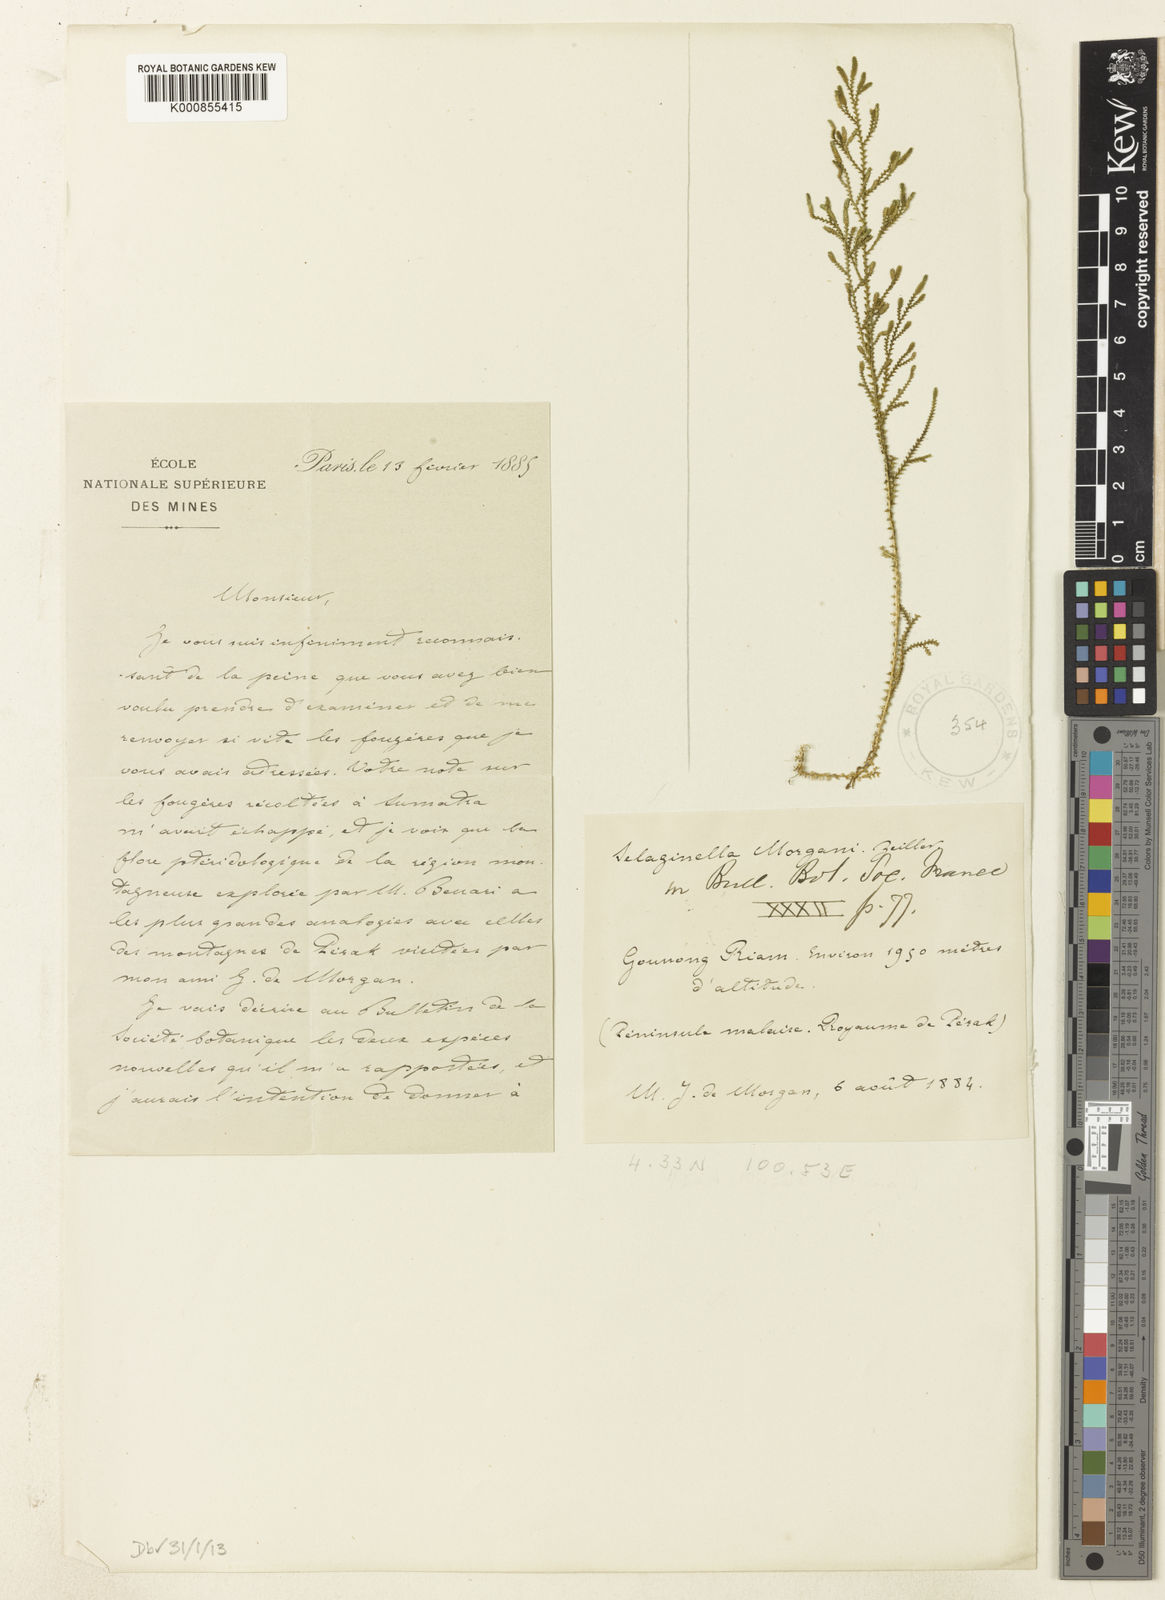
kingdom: Plantae
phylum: Tracheophyta
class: Lycopodiopsida
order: Selaginellales
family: Selaginellaceae
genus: Selaginella
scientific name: Selaginella morgani
